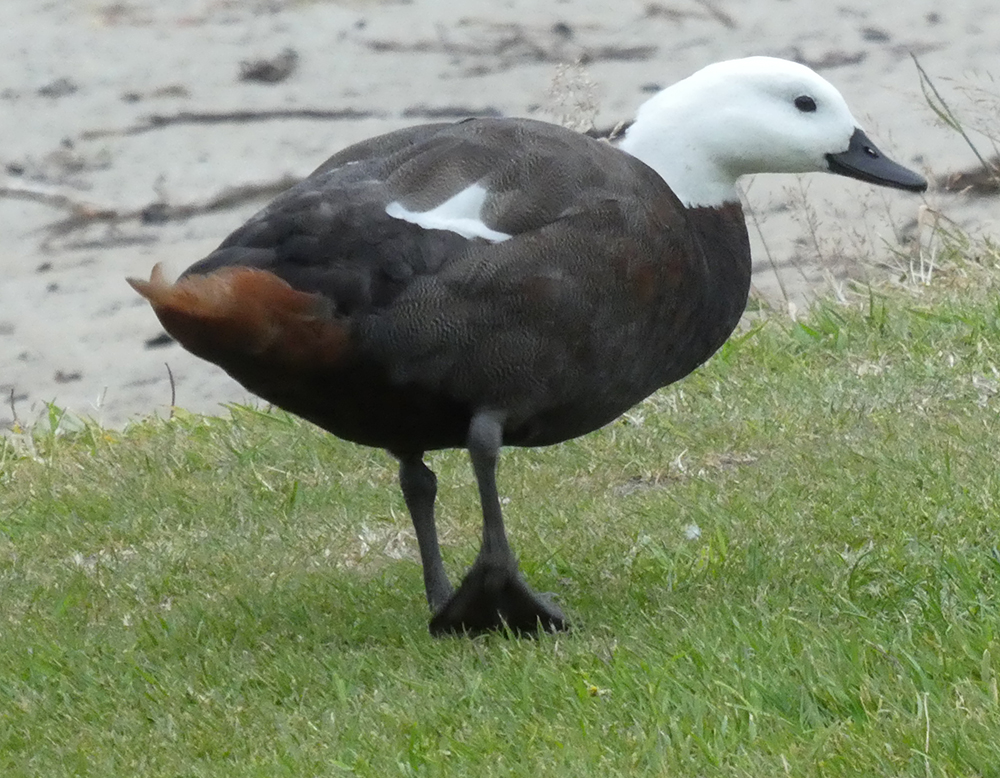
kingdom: Animalia
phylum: Chordata
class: Aves
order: Anseriformes
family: Anatidae
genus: Tadorna
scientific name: Tadorna variegata
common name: Paradise shelduck
